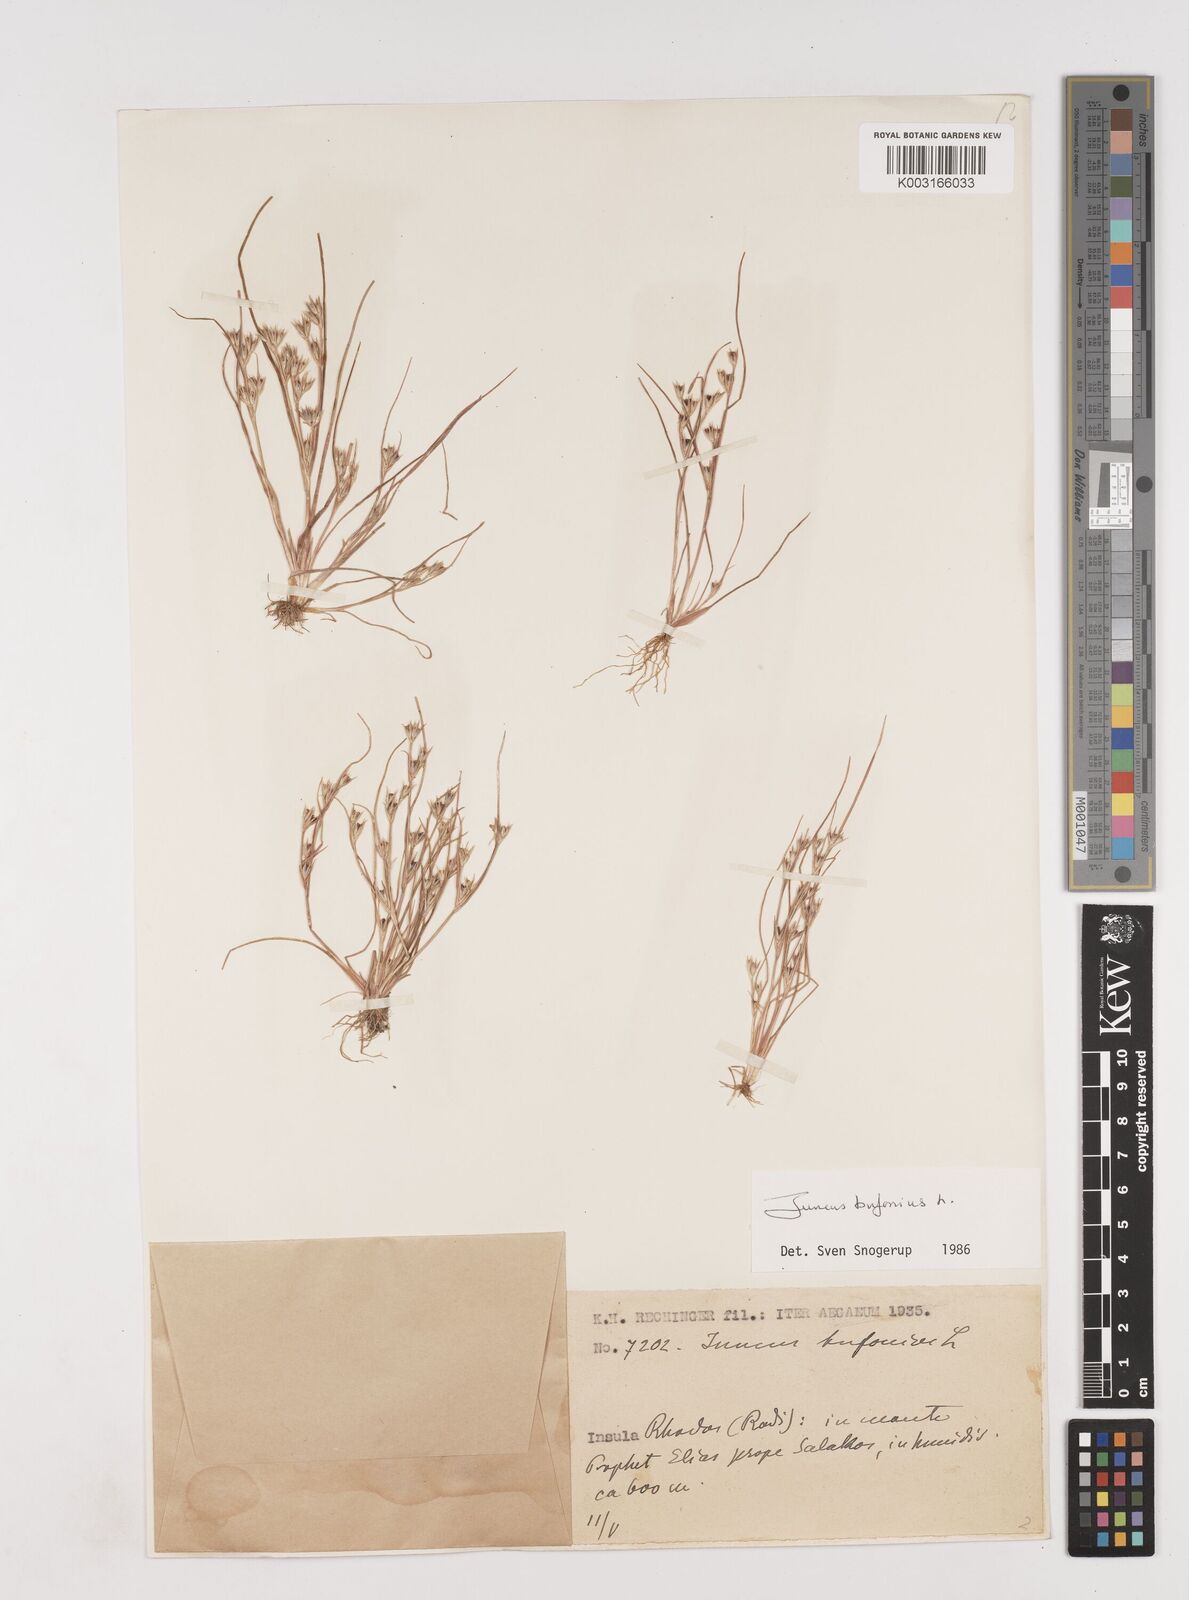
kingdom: Plantae
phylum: Tracheophyta
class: Liliopsida
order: Poales
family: Juncaceae
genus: Juncus
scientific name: Juncus bufonius
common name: Toad rush
